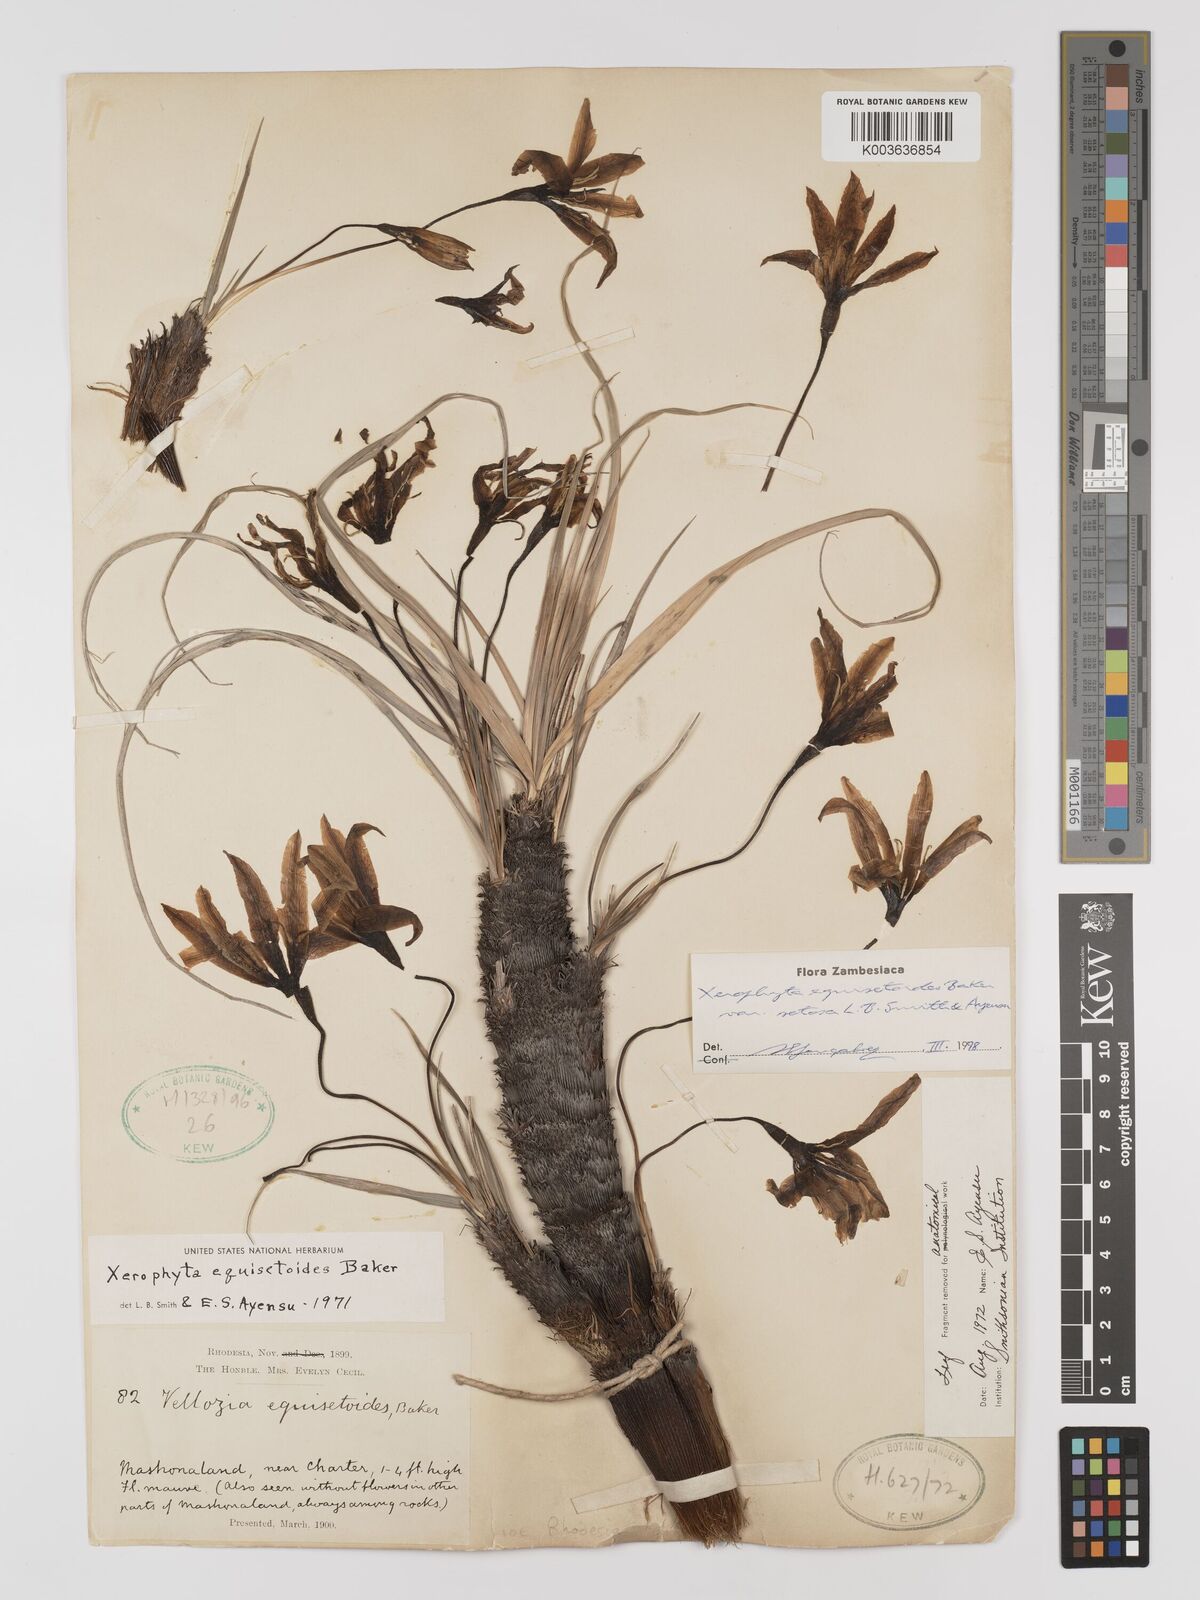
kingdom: Plantae
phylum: Tracheophyta
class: Liliopsida
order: Pandanales
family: Velloziaceae
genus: Xerophyta
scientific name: Xerophyta equisetoides
